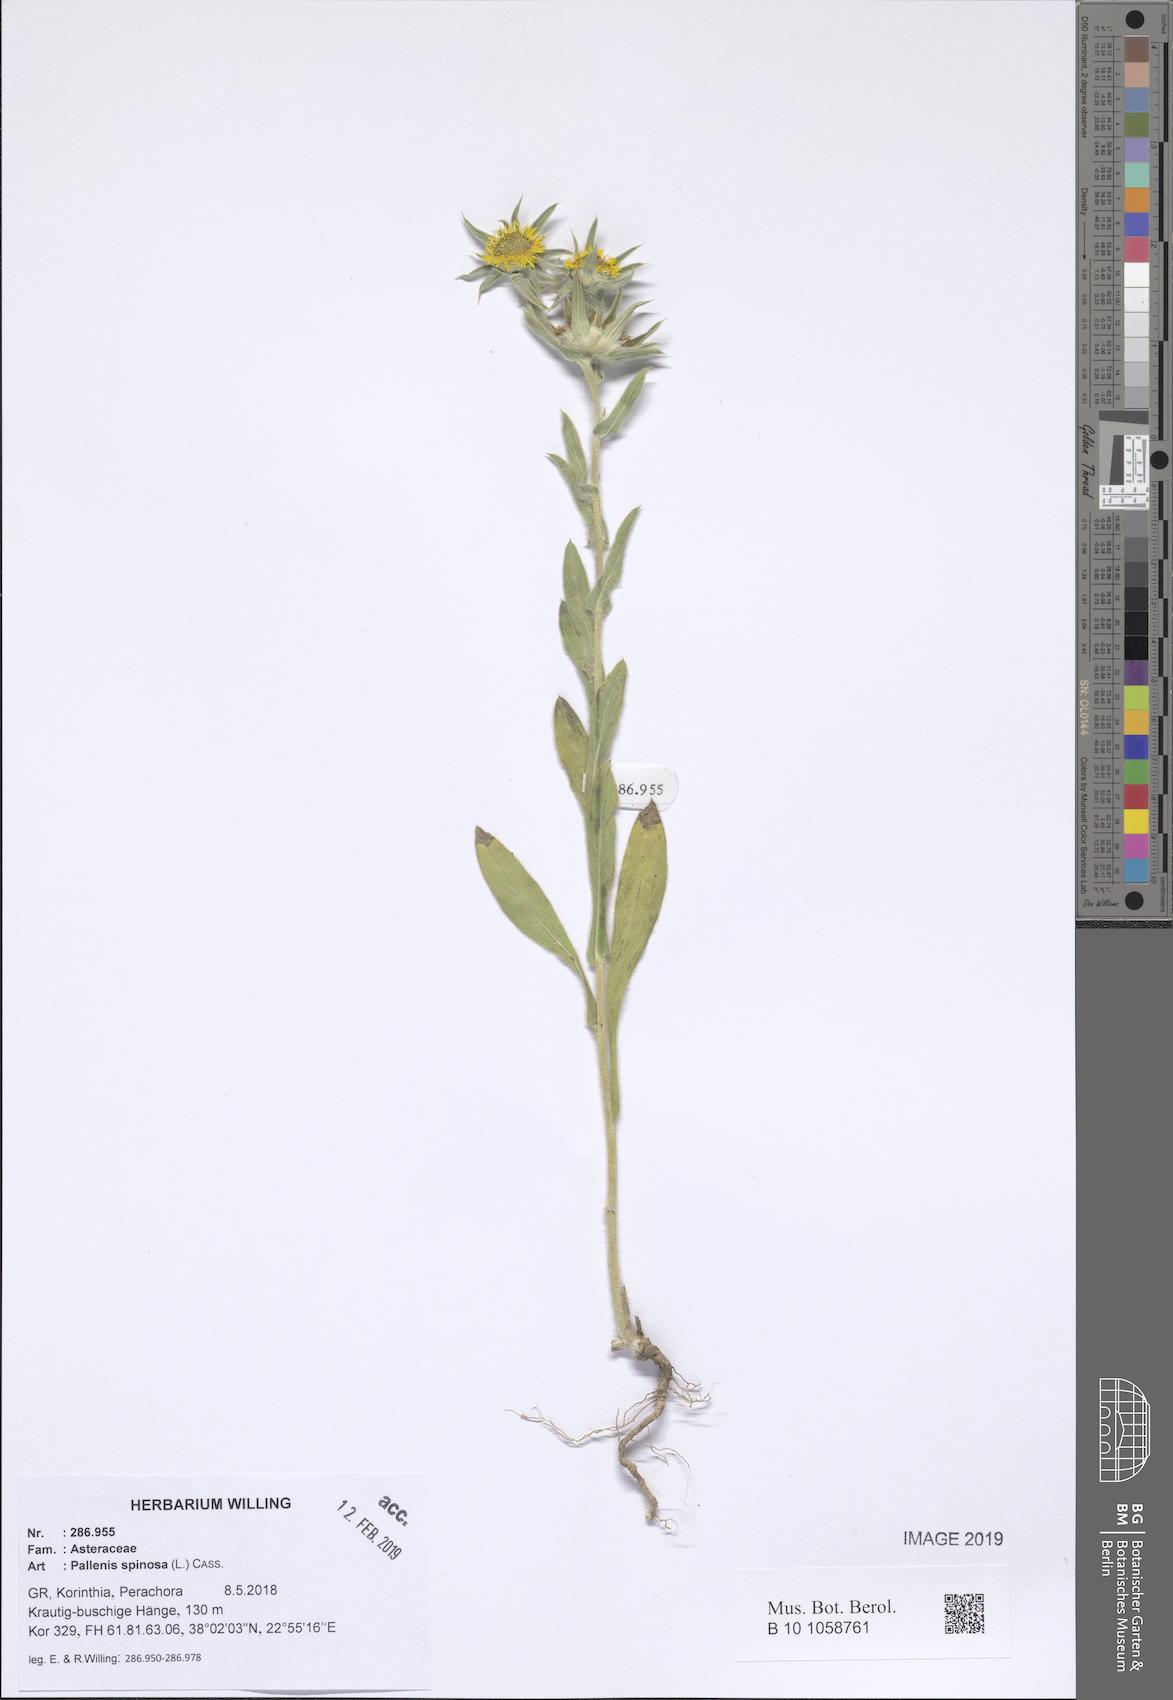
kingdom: Plantae
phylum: Tracheophyta
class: Magnoliopsida
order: Asterales
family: Asteraceae
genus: Pallenis
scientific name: Pallenis spinosa
